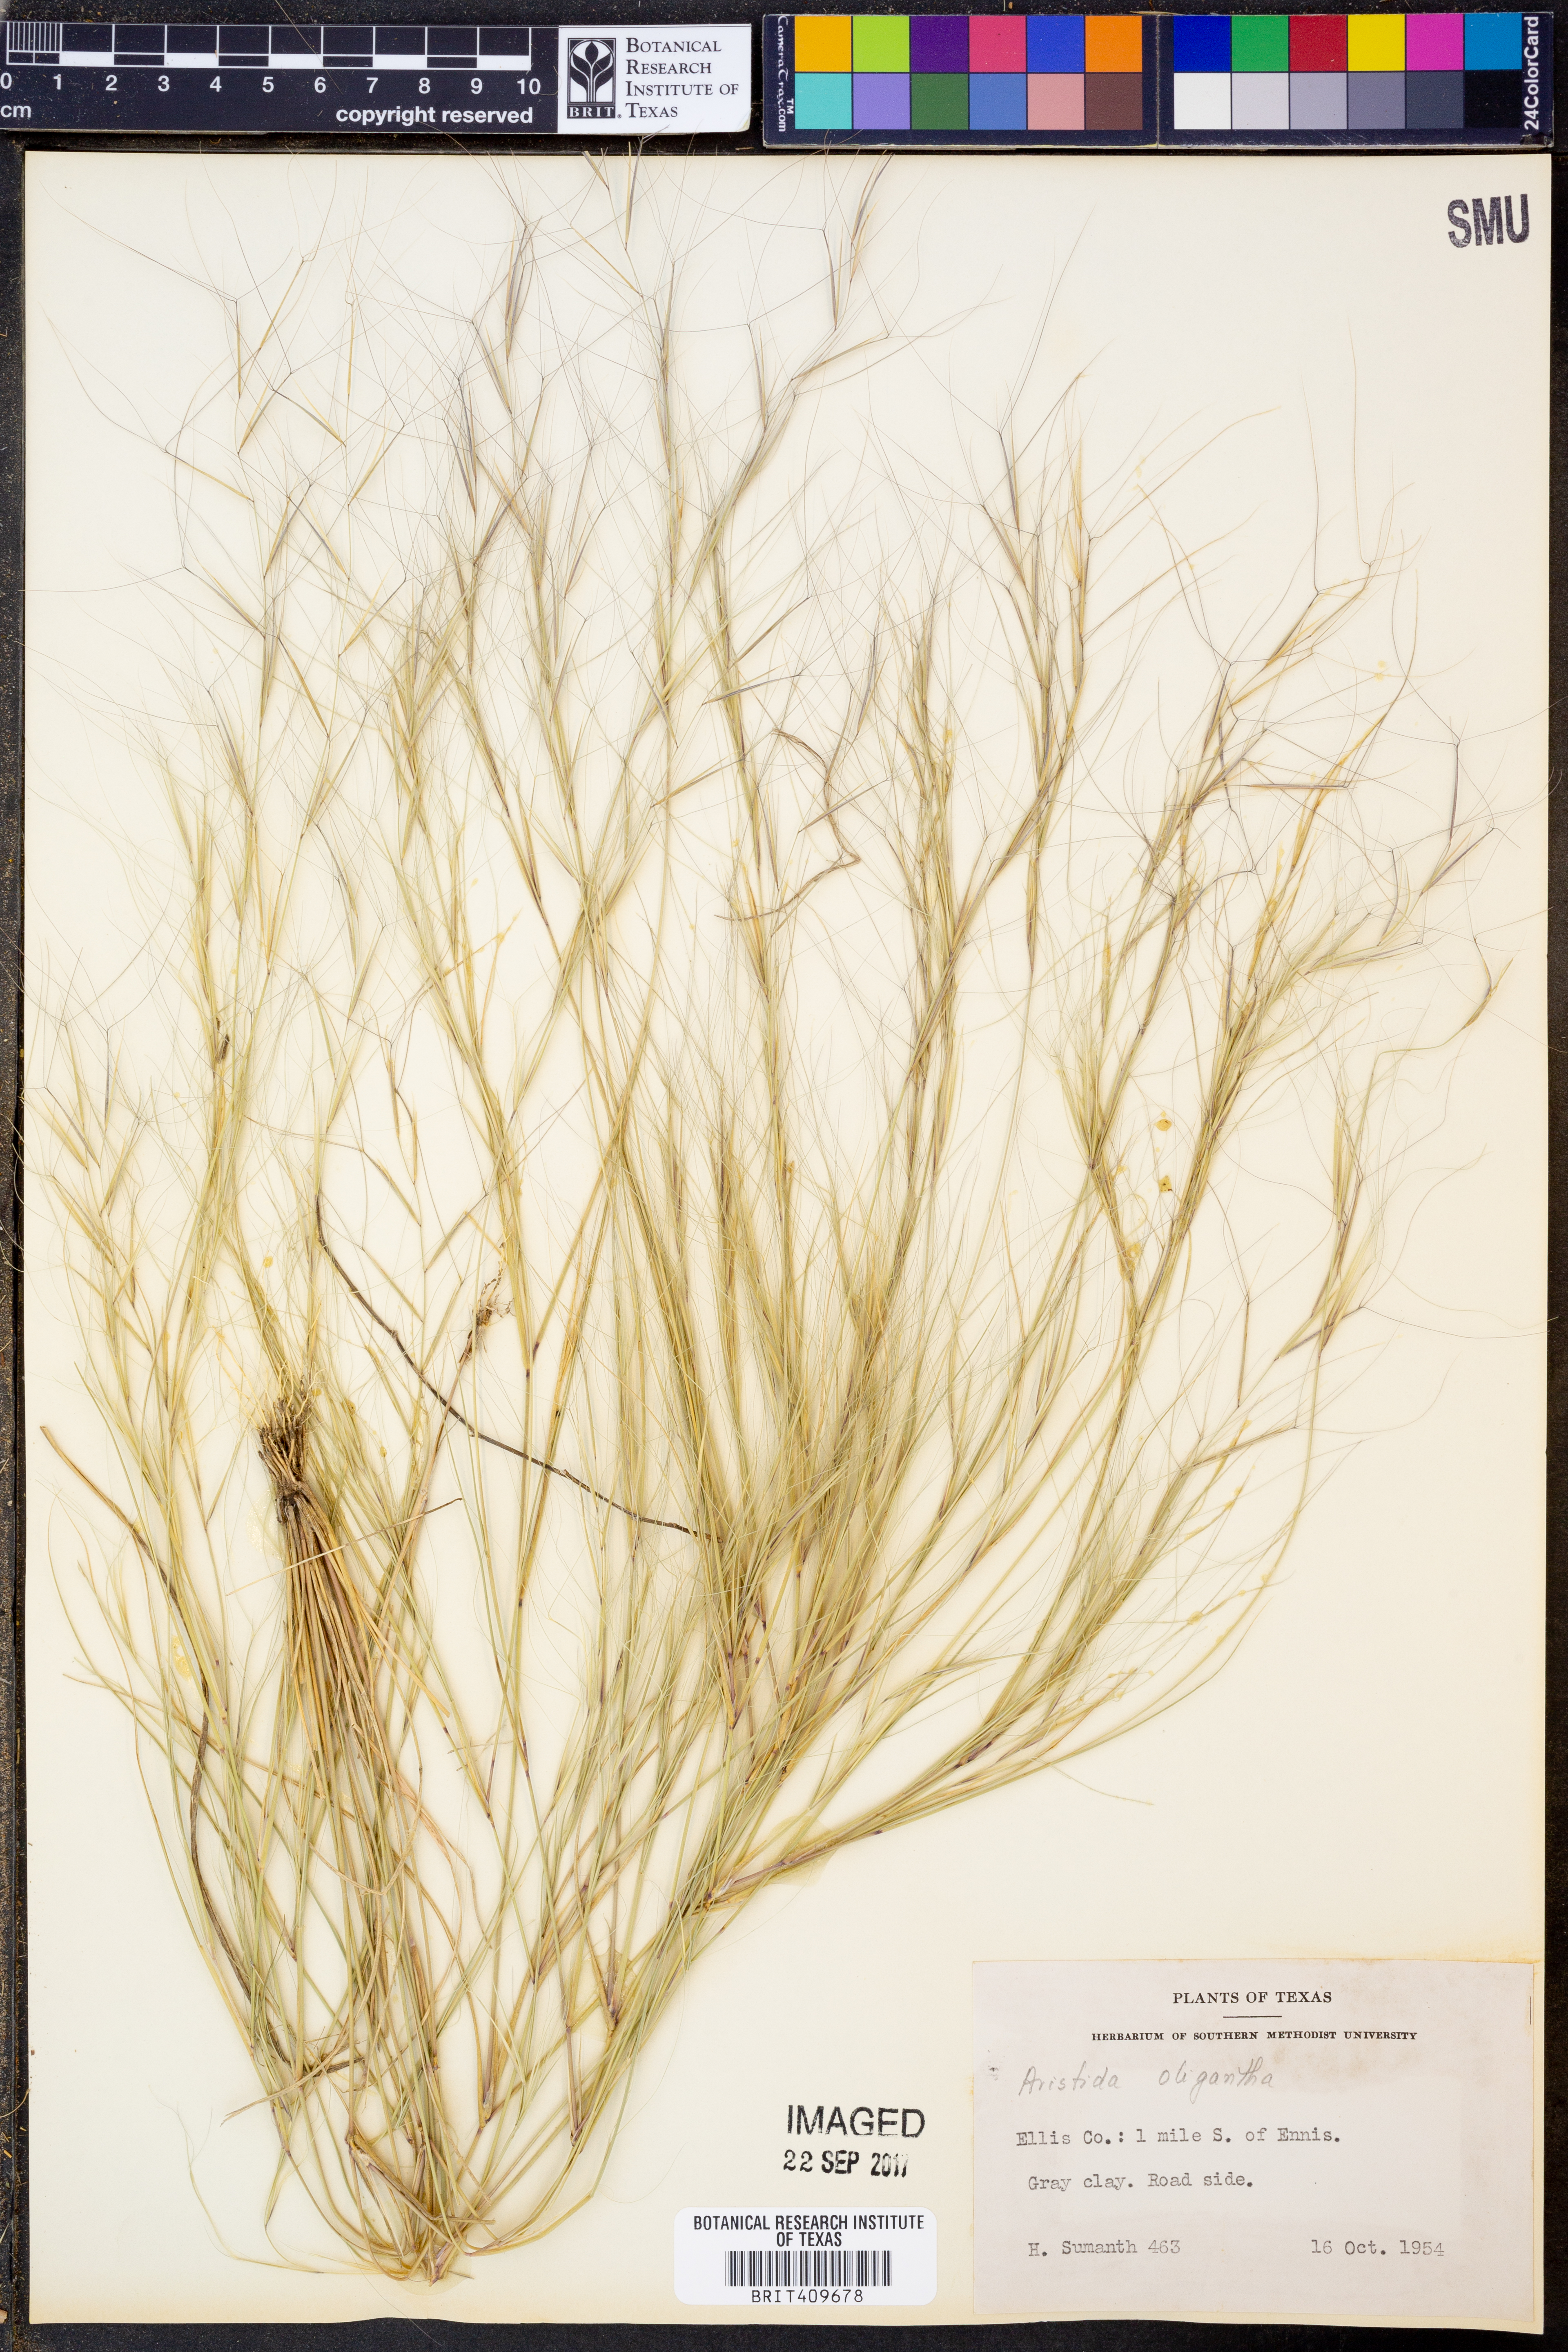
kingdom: Plantae
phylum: Tracheophyta
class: Liliopsida
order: Poales
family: Poaceae
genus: Aristida
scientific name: Aristida oligantha
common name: Few-flowered aristida
